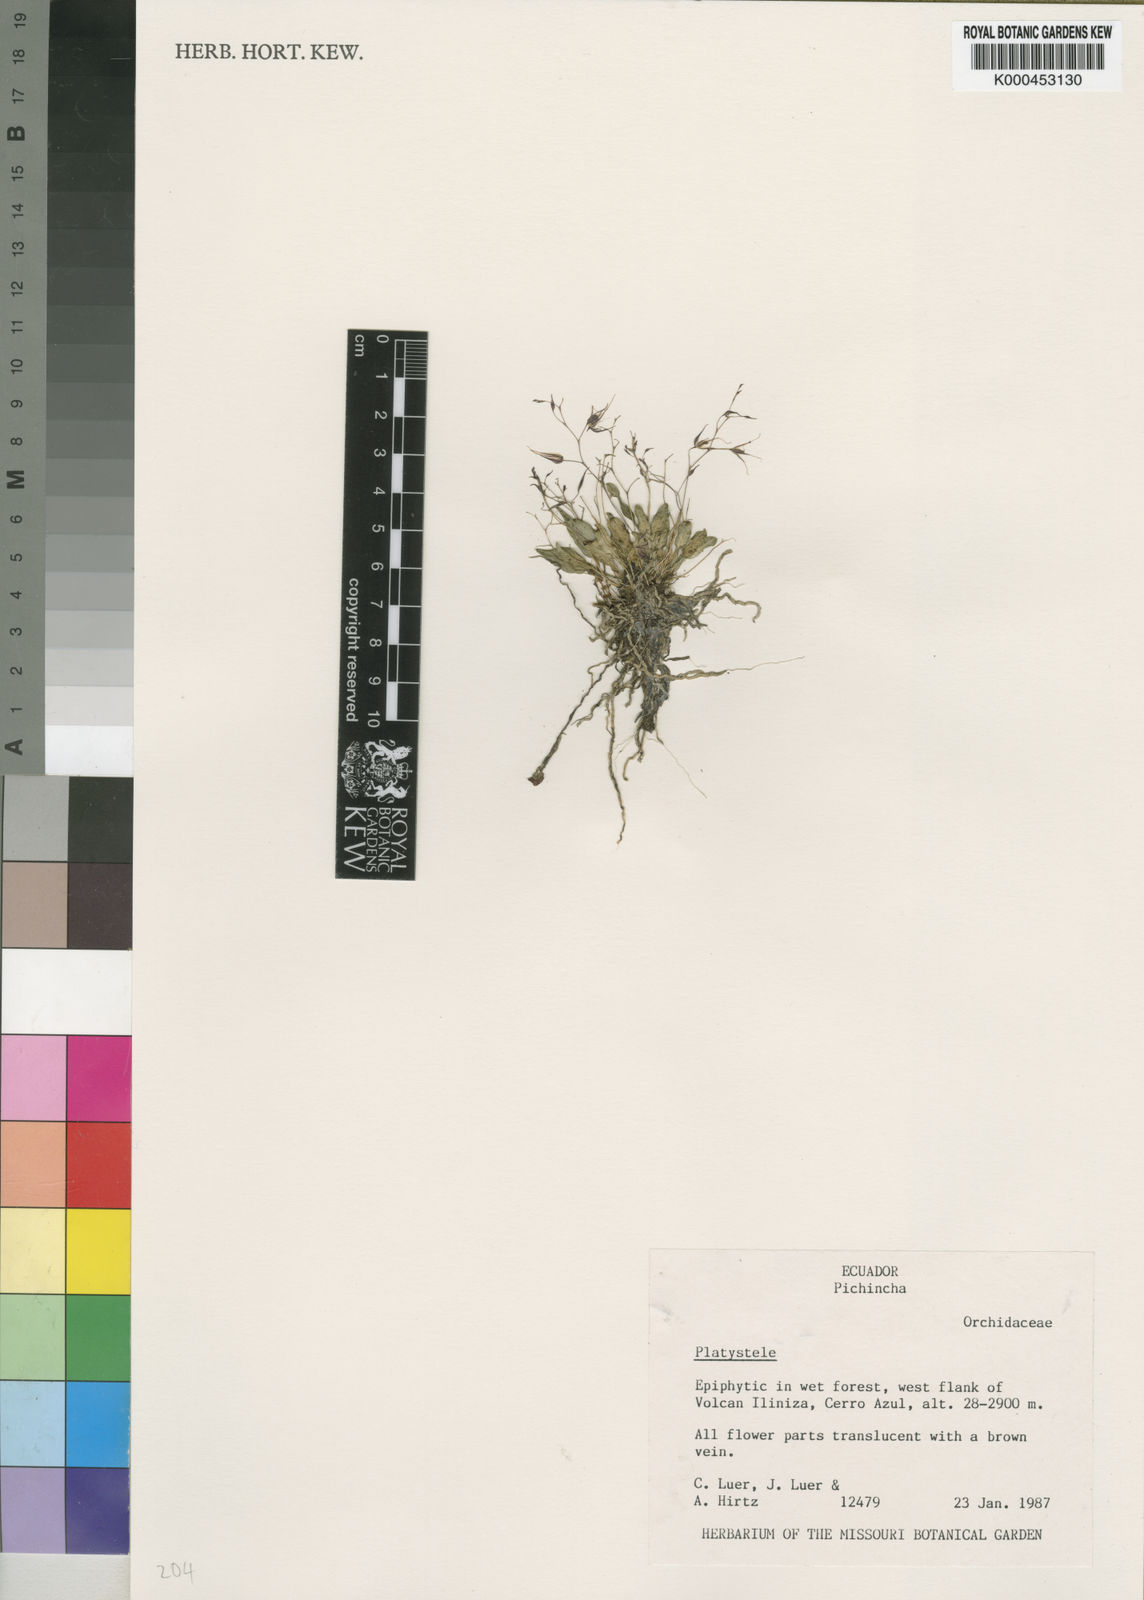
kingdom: Plantae
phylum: Tracheophyta
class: Liliopsida
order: Asparagales
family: Orchidaceae
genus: Platystele
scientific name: Platystele
